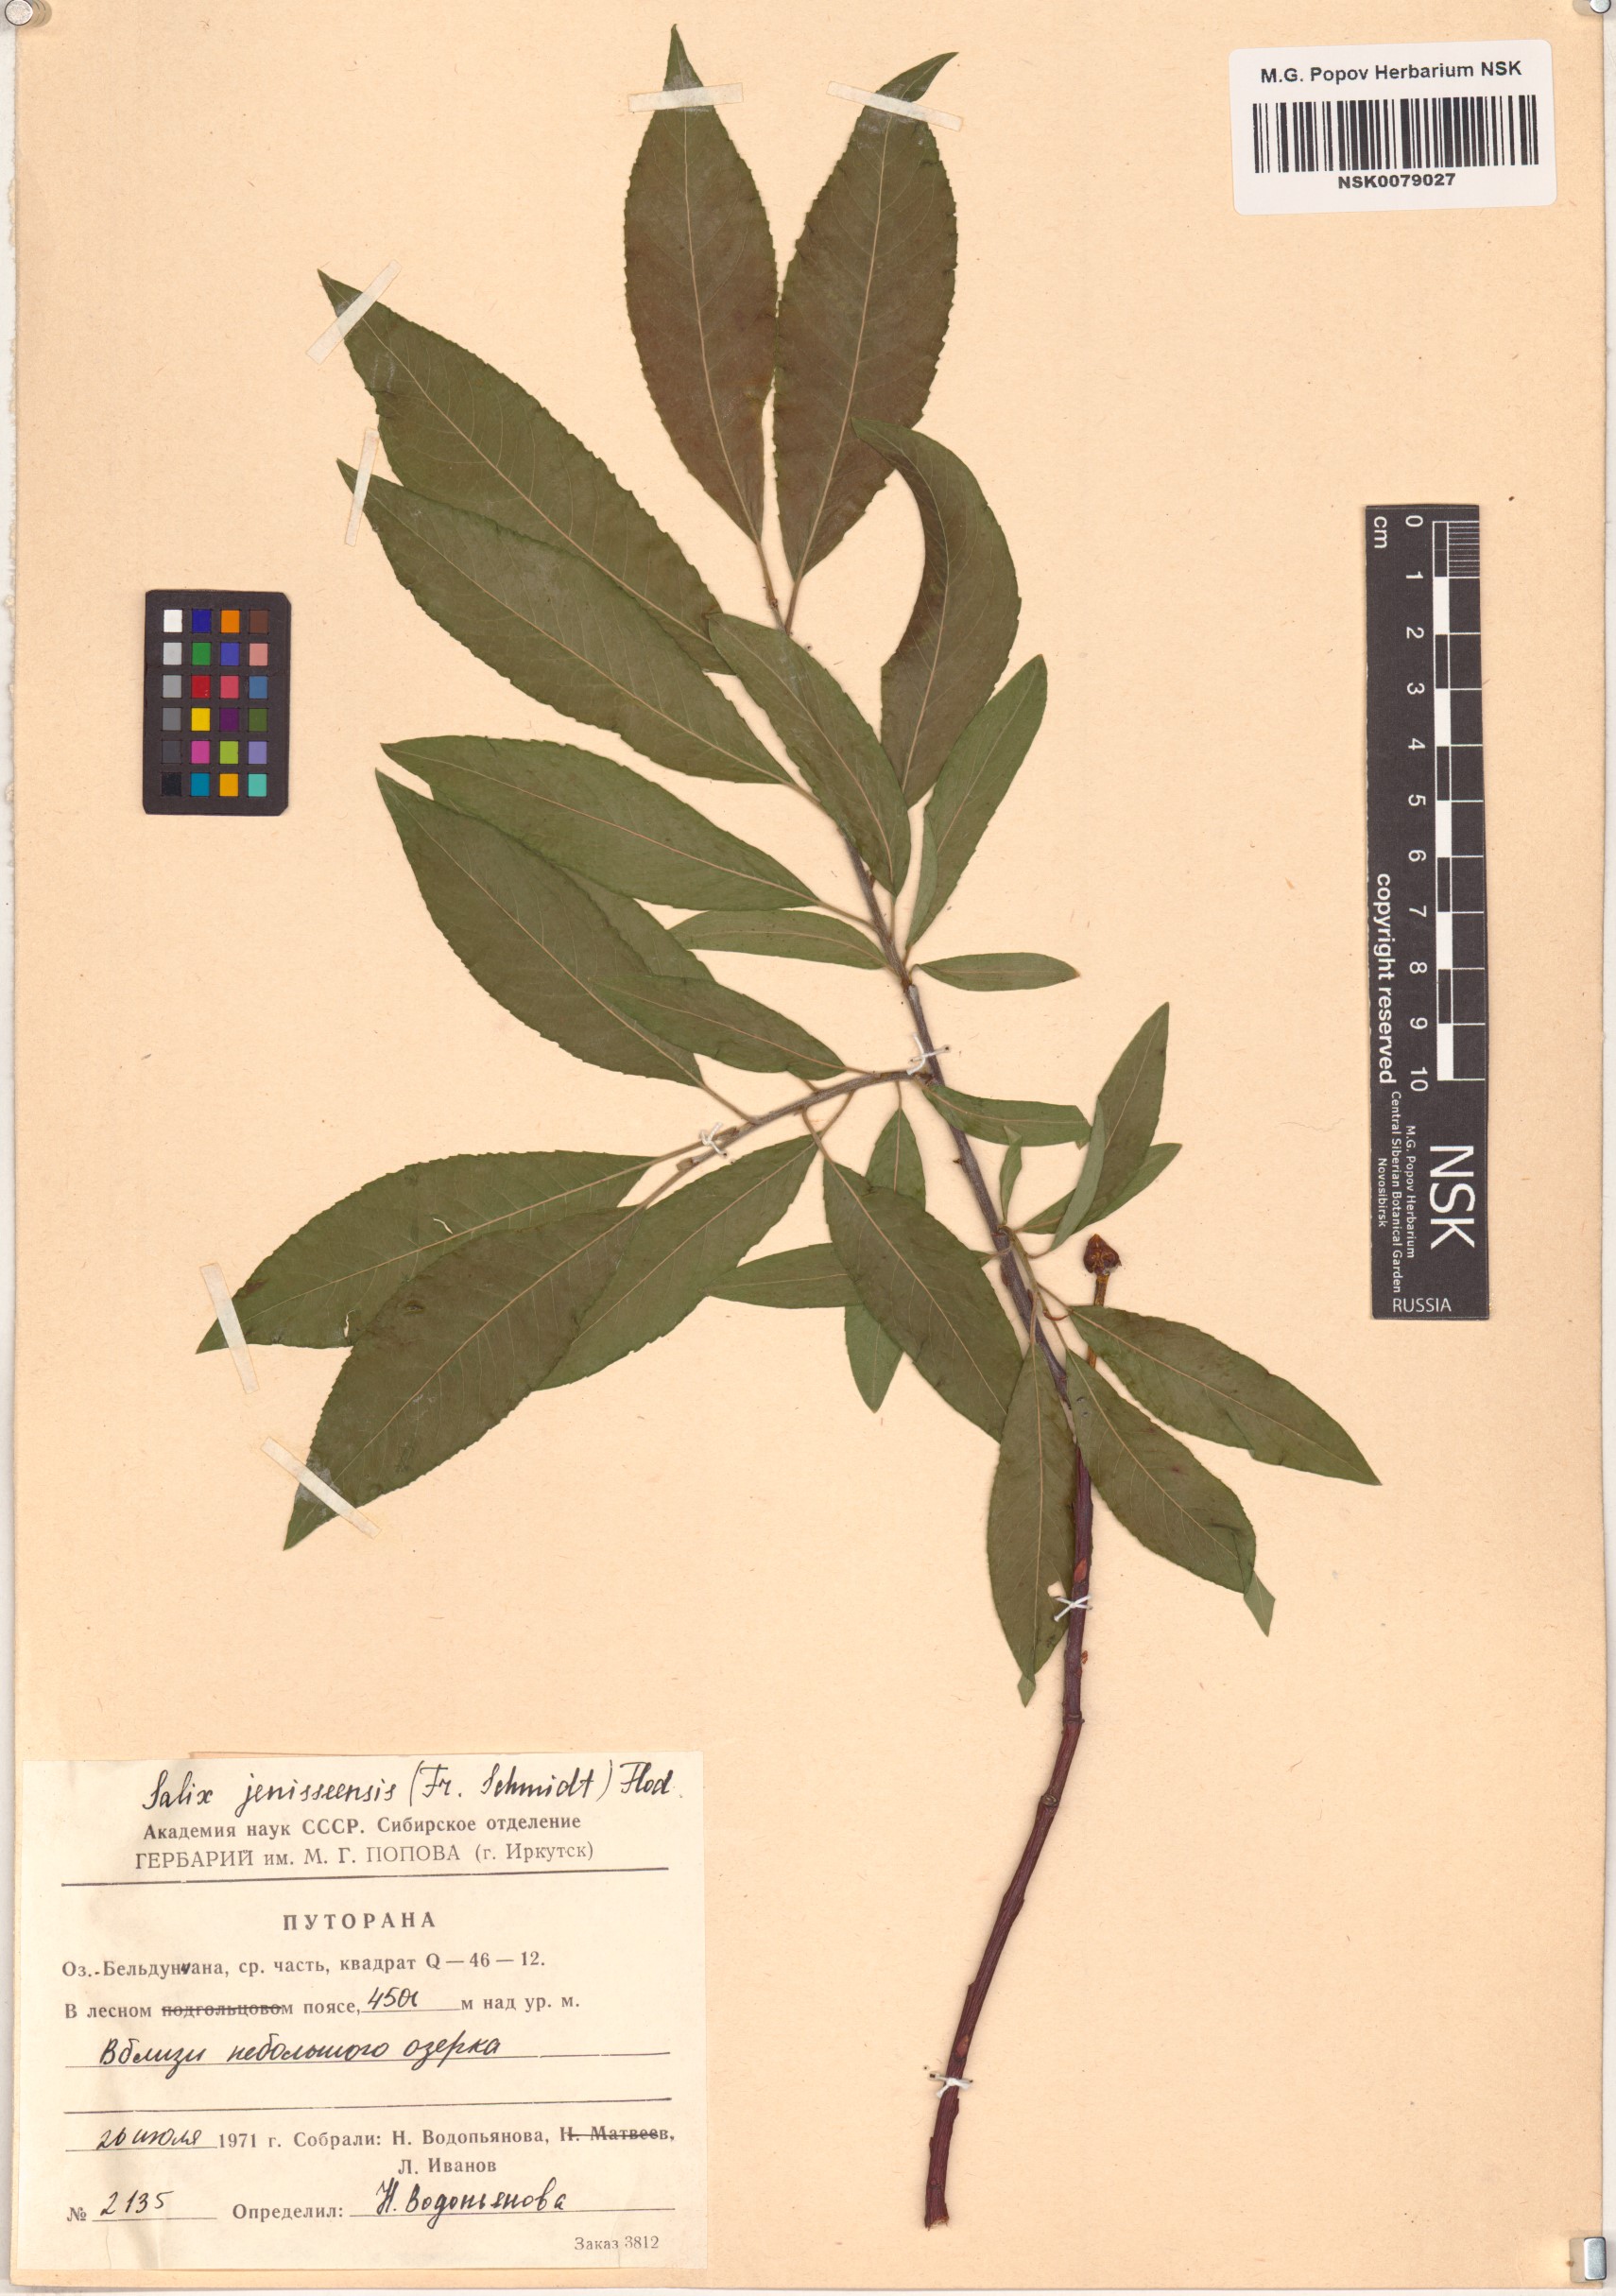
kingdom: Plantae
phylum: Tracheophyta
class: Magnoliopsida
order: Malpighiales
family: Salicaceae
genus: Salix
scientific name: Salix jenisseensis
